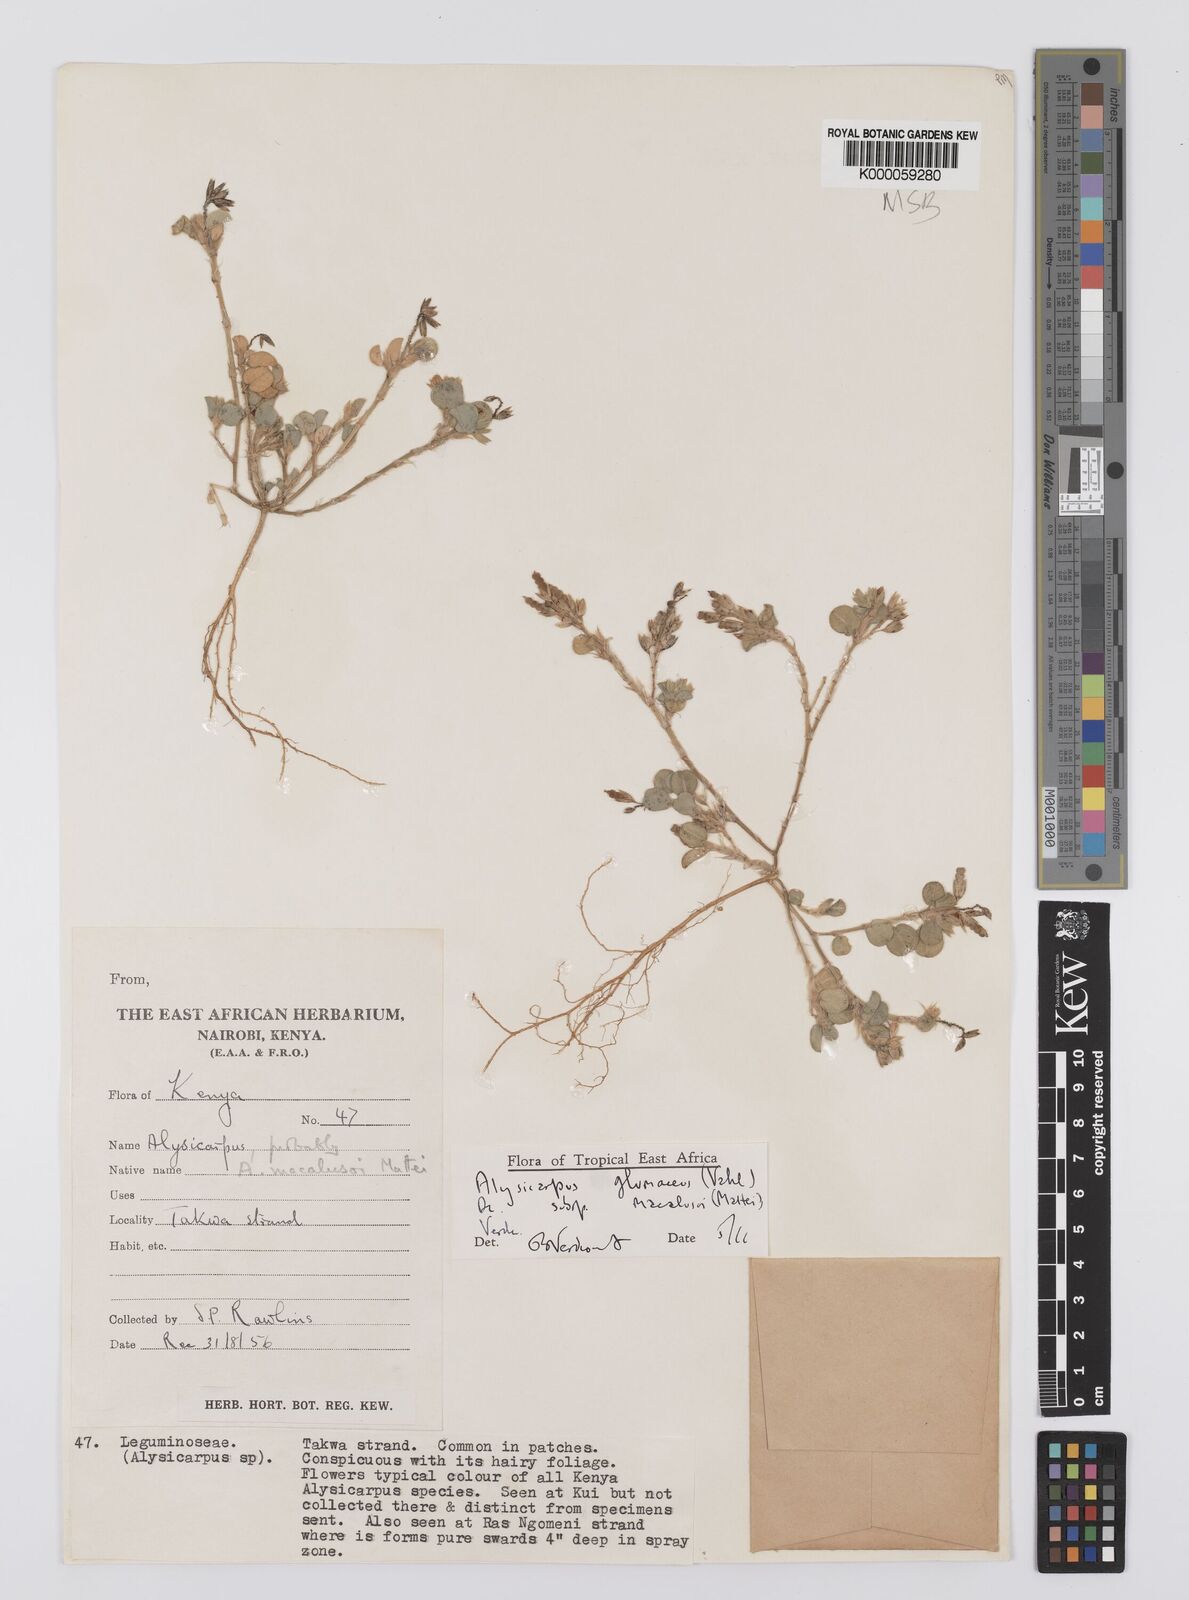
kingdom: Plantae
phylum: Tracheophyta
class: Magnoliopsida
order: Fabales
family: Fabaceae
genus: Alysicarpus
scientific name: Alysicarpus glumaceus
